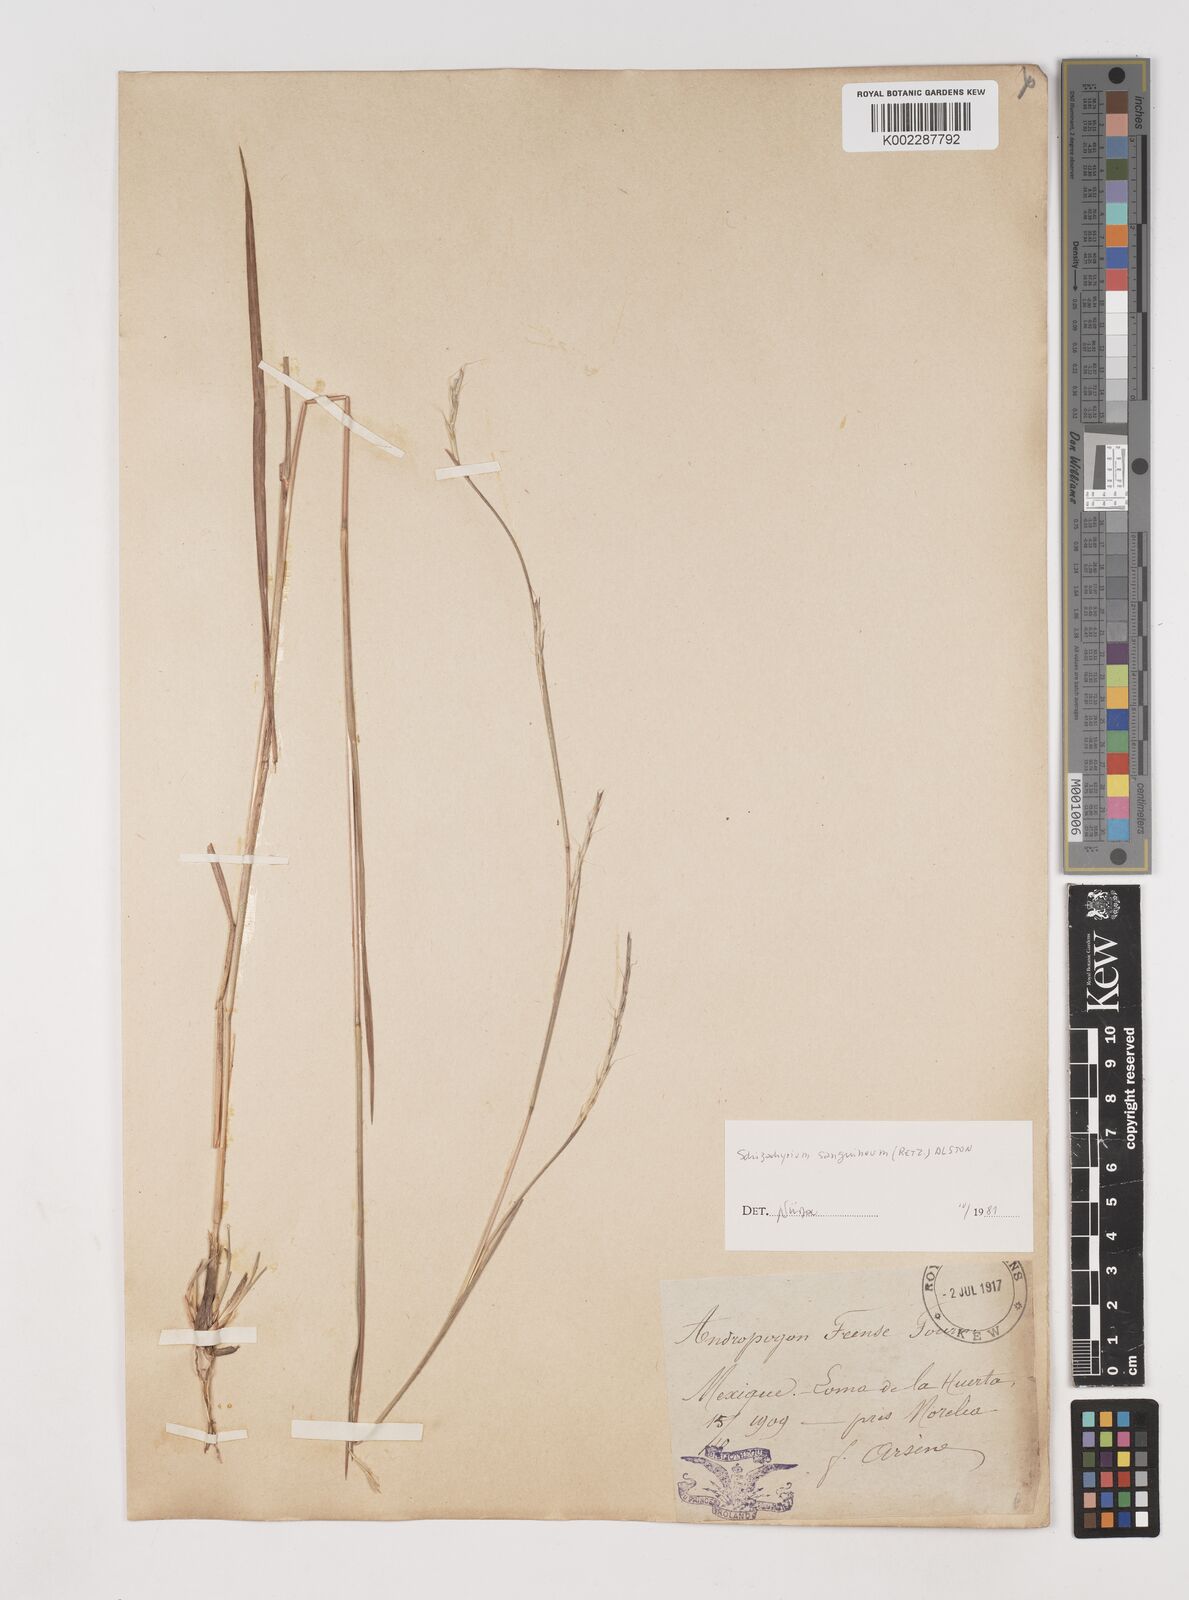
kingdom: Plantae
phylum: Tracheophyta
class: Liliopsida
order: Poales
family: Poaceae
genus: Schizachyrium
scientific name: Schizachyrium sanguineum
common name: Crimson bluestem
